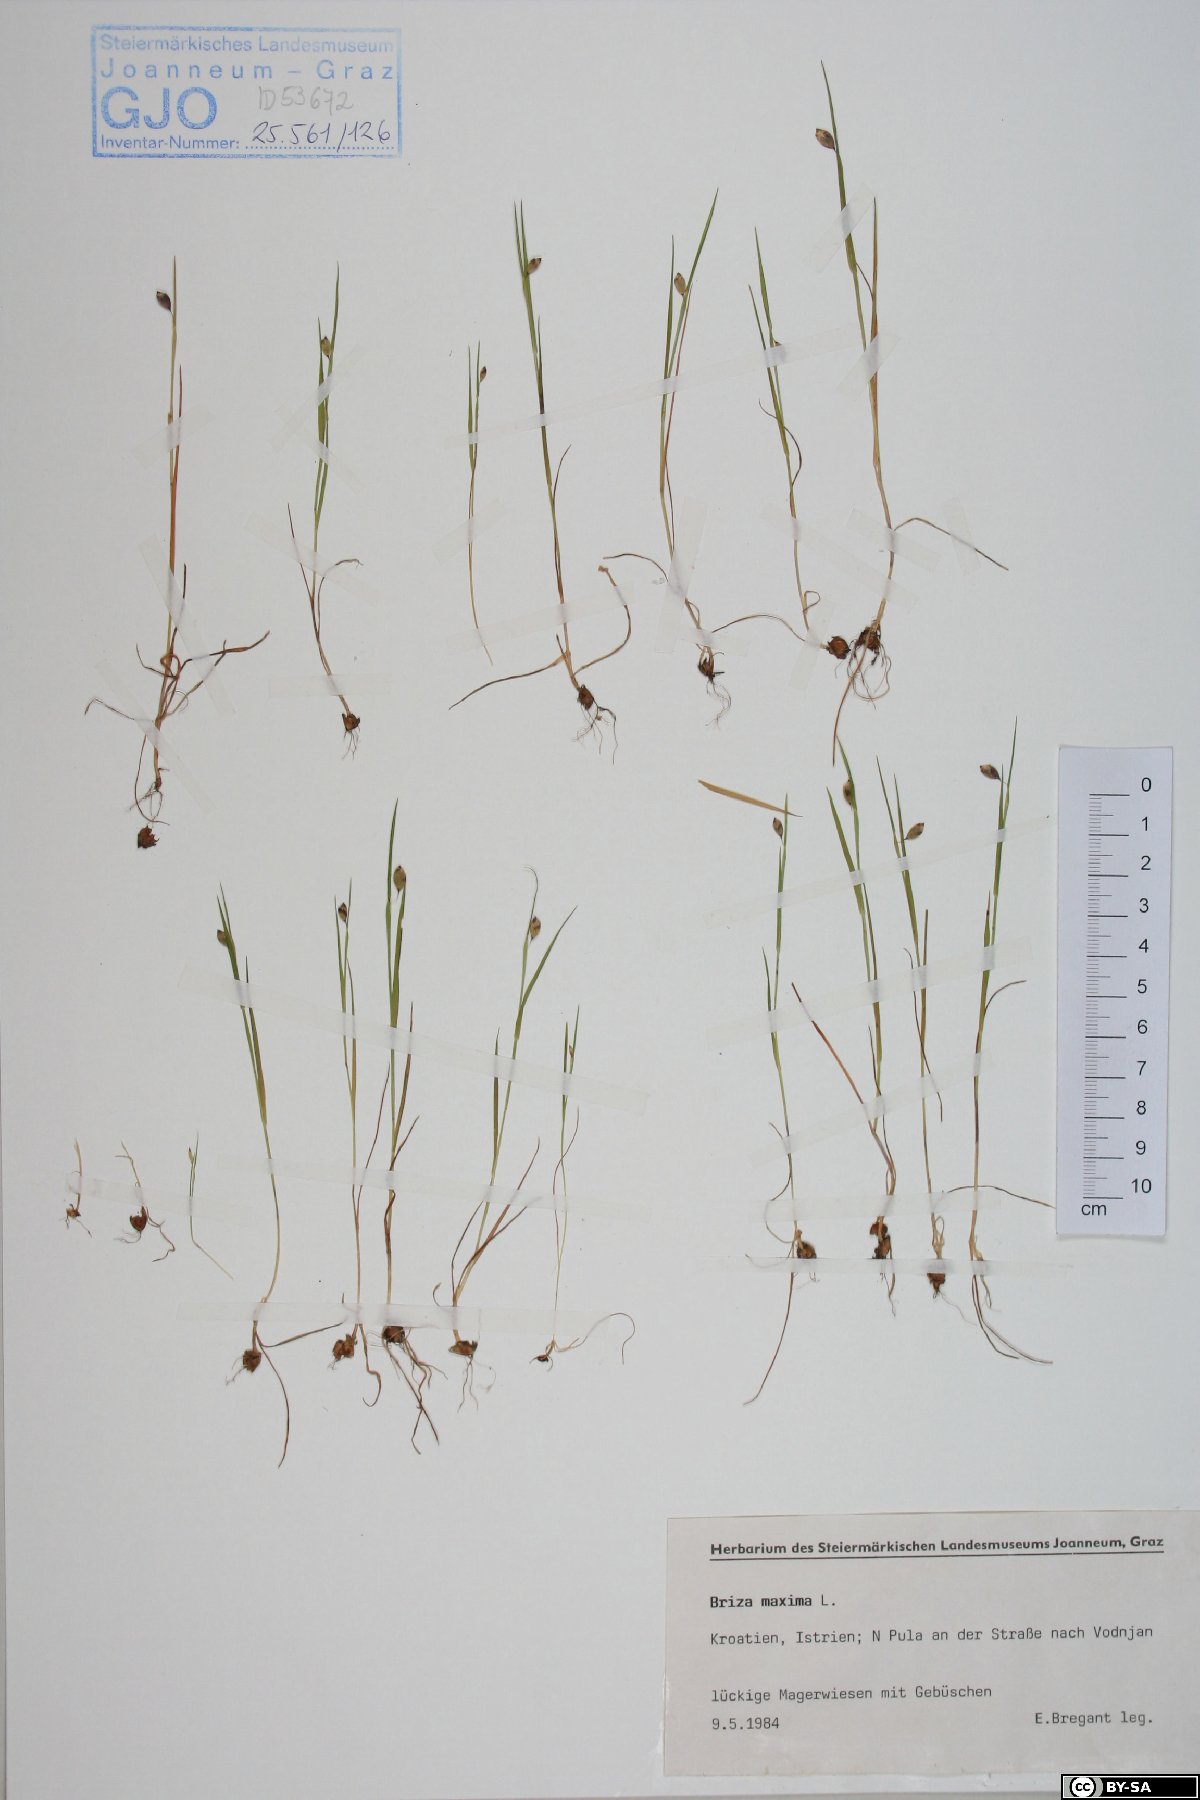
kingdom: Plantae
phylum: Tracheophyta
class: Liliopsida
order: Poales
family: Poaceae
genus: Briza
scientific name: Briza maxima
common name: Big quakinggrass
